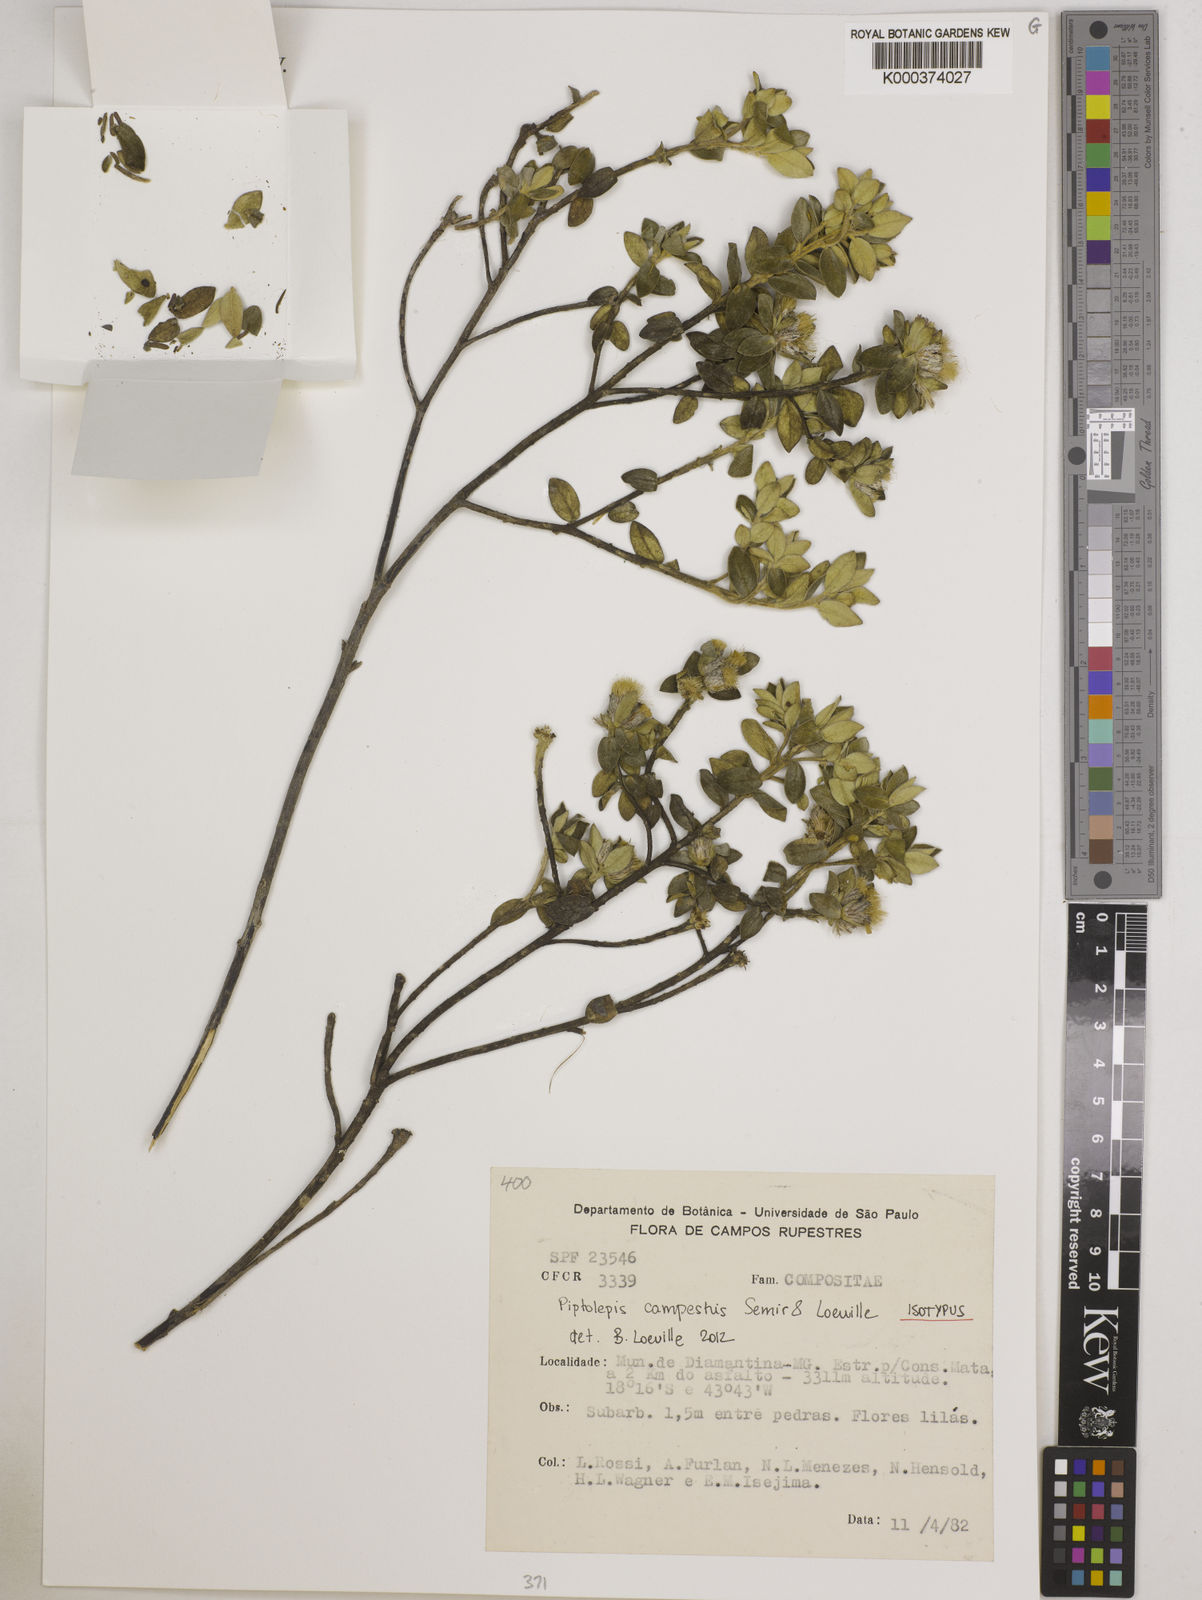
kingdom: Plantae
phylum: Tracheophyta
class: Magnoliopsida
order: Asterales
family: Asteraceae
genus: Piptolepis
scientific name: Piptolepis campestris
